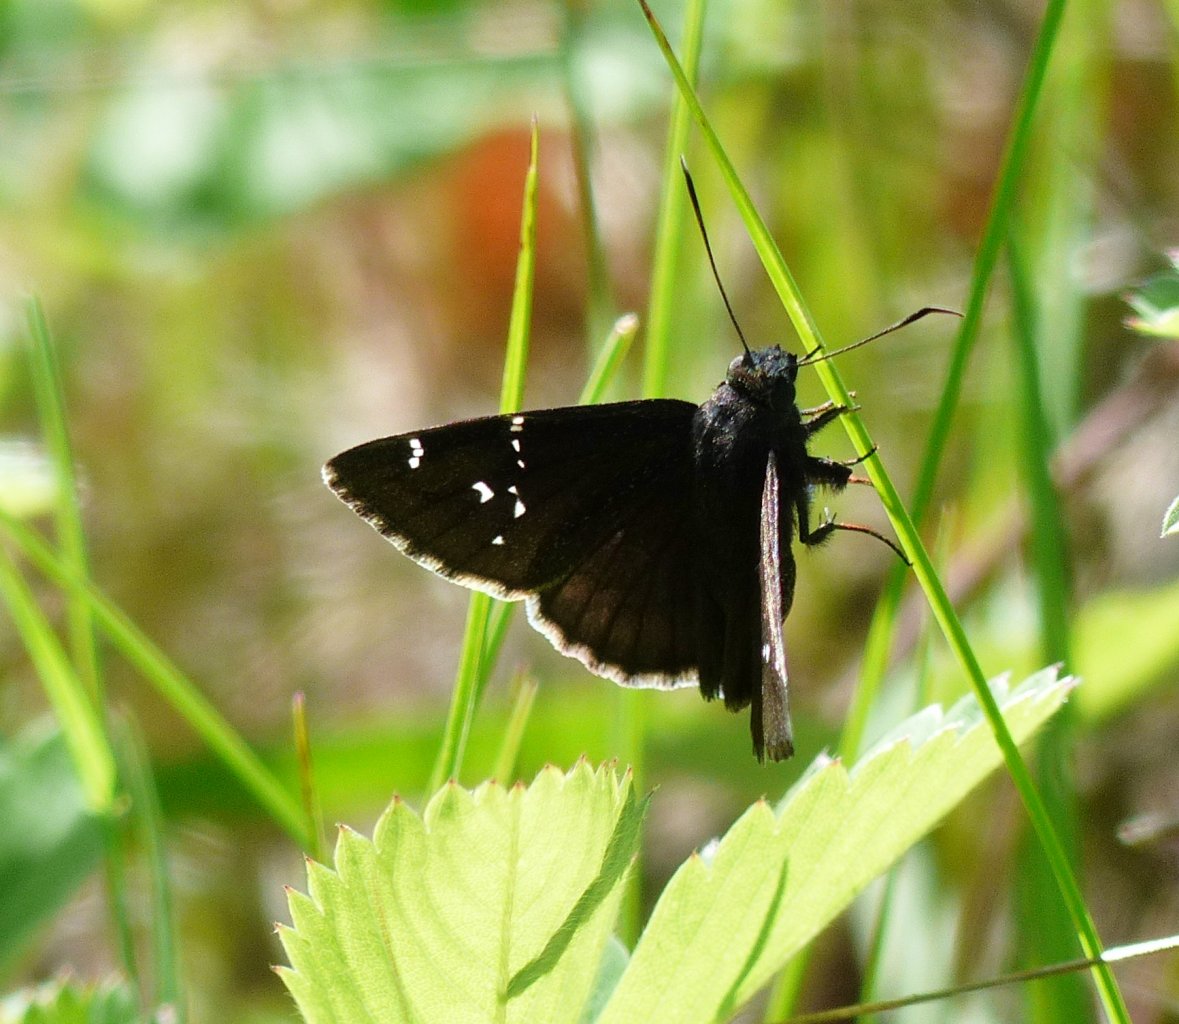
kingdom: Animalia
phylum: Arthropoda
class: Insecta
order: Lepidoptera
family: Hesperiidae
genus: Autochton
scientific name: Autochton
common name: Northern Cloudywing
